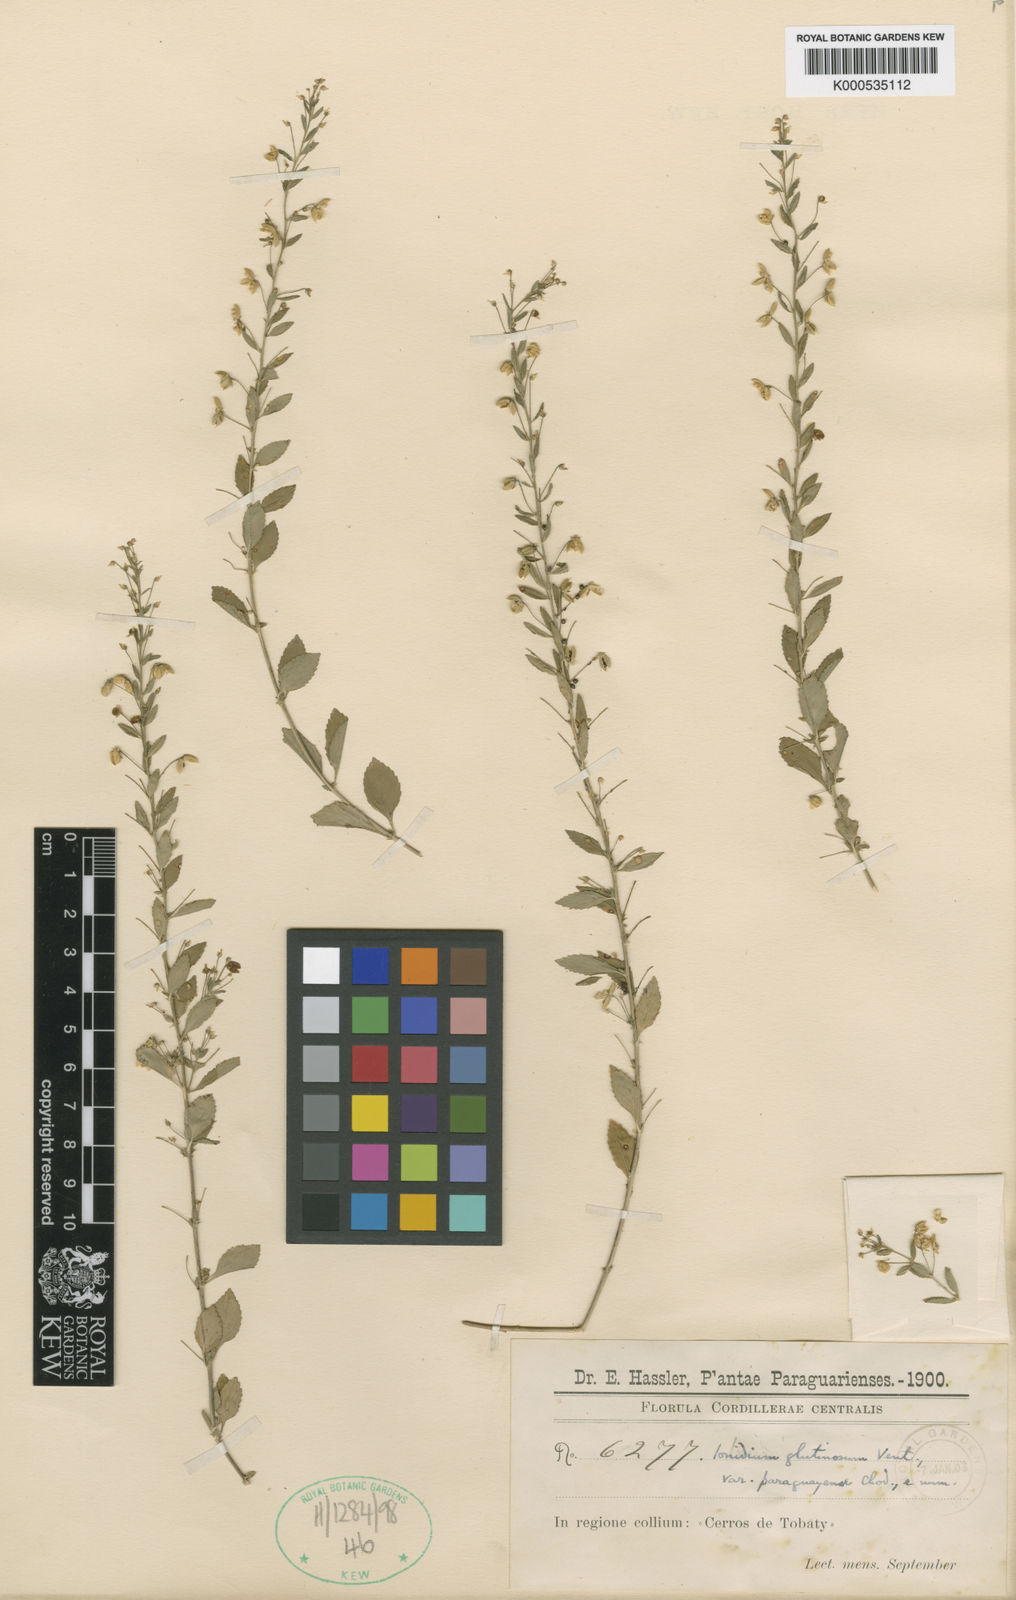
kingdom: Plantae
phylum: Tracheophyta
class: Magnoliopsida
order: Malpighiales
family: Violaceae
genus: Pombalia
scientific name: Pombalia parviflora
